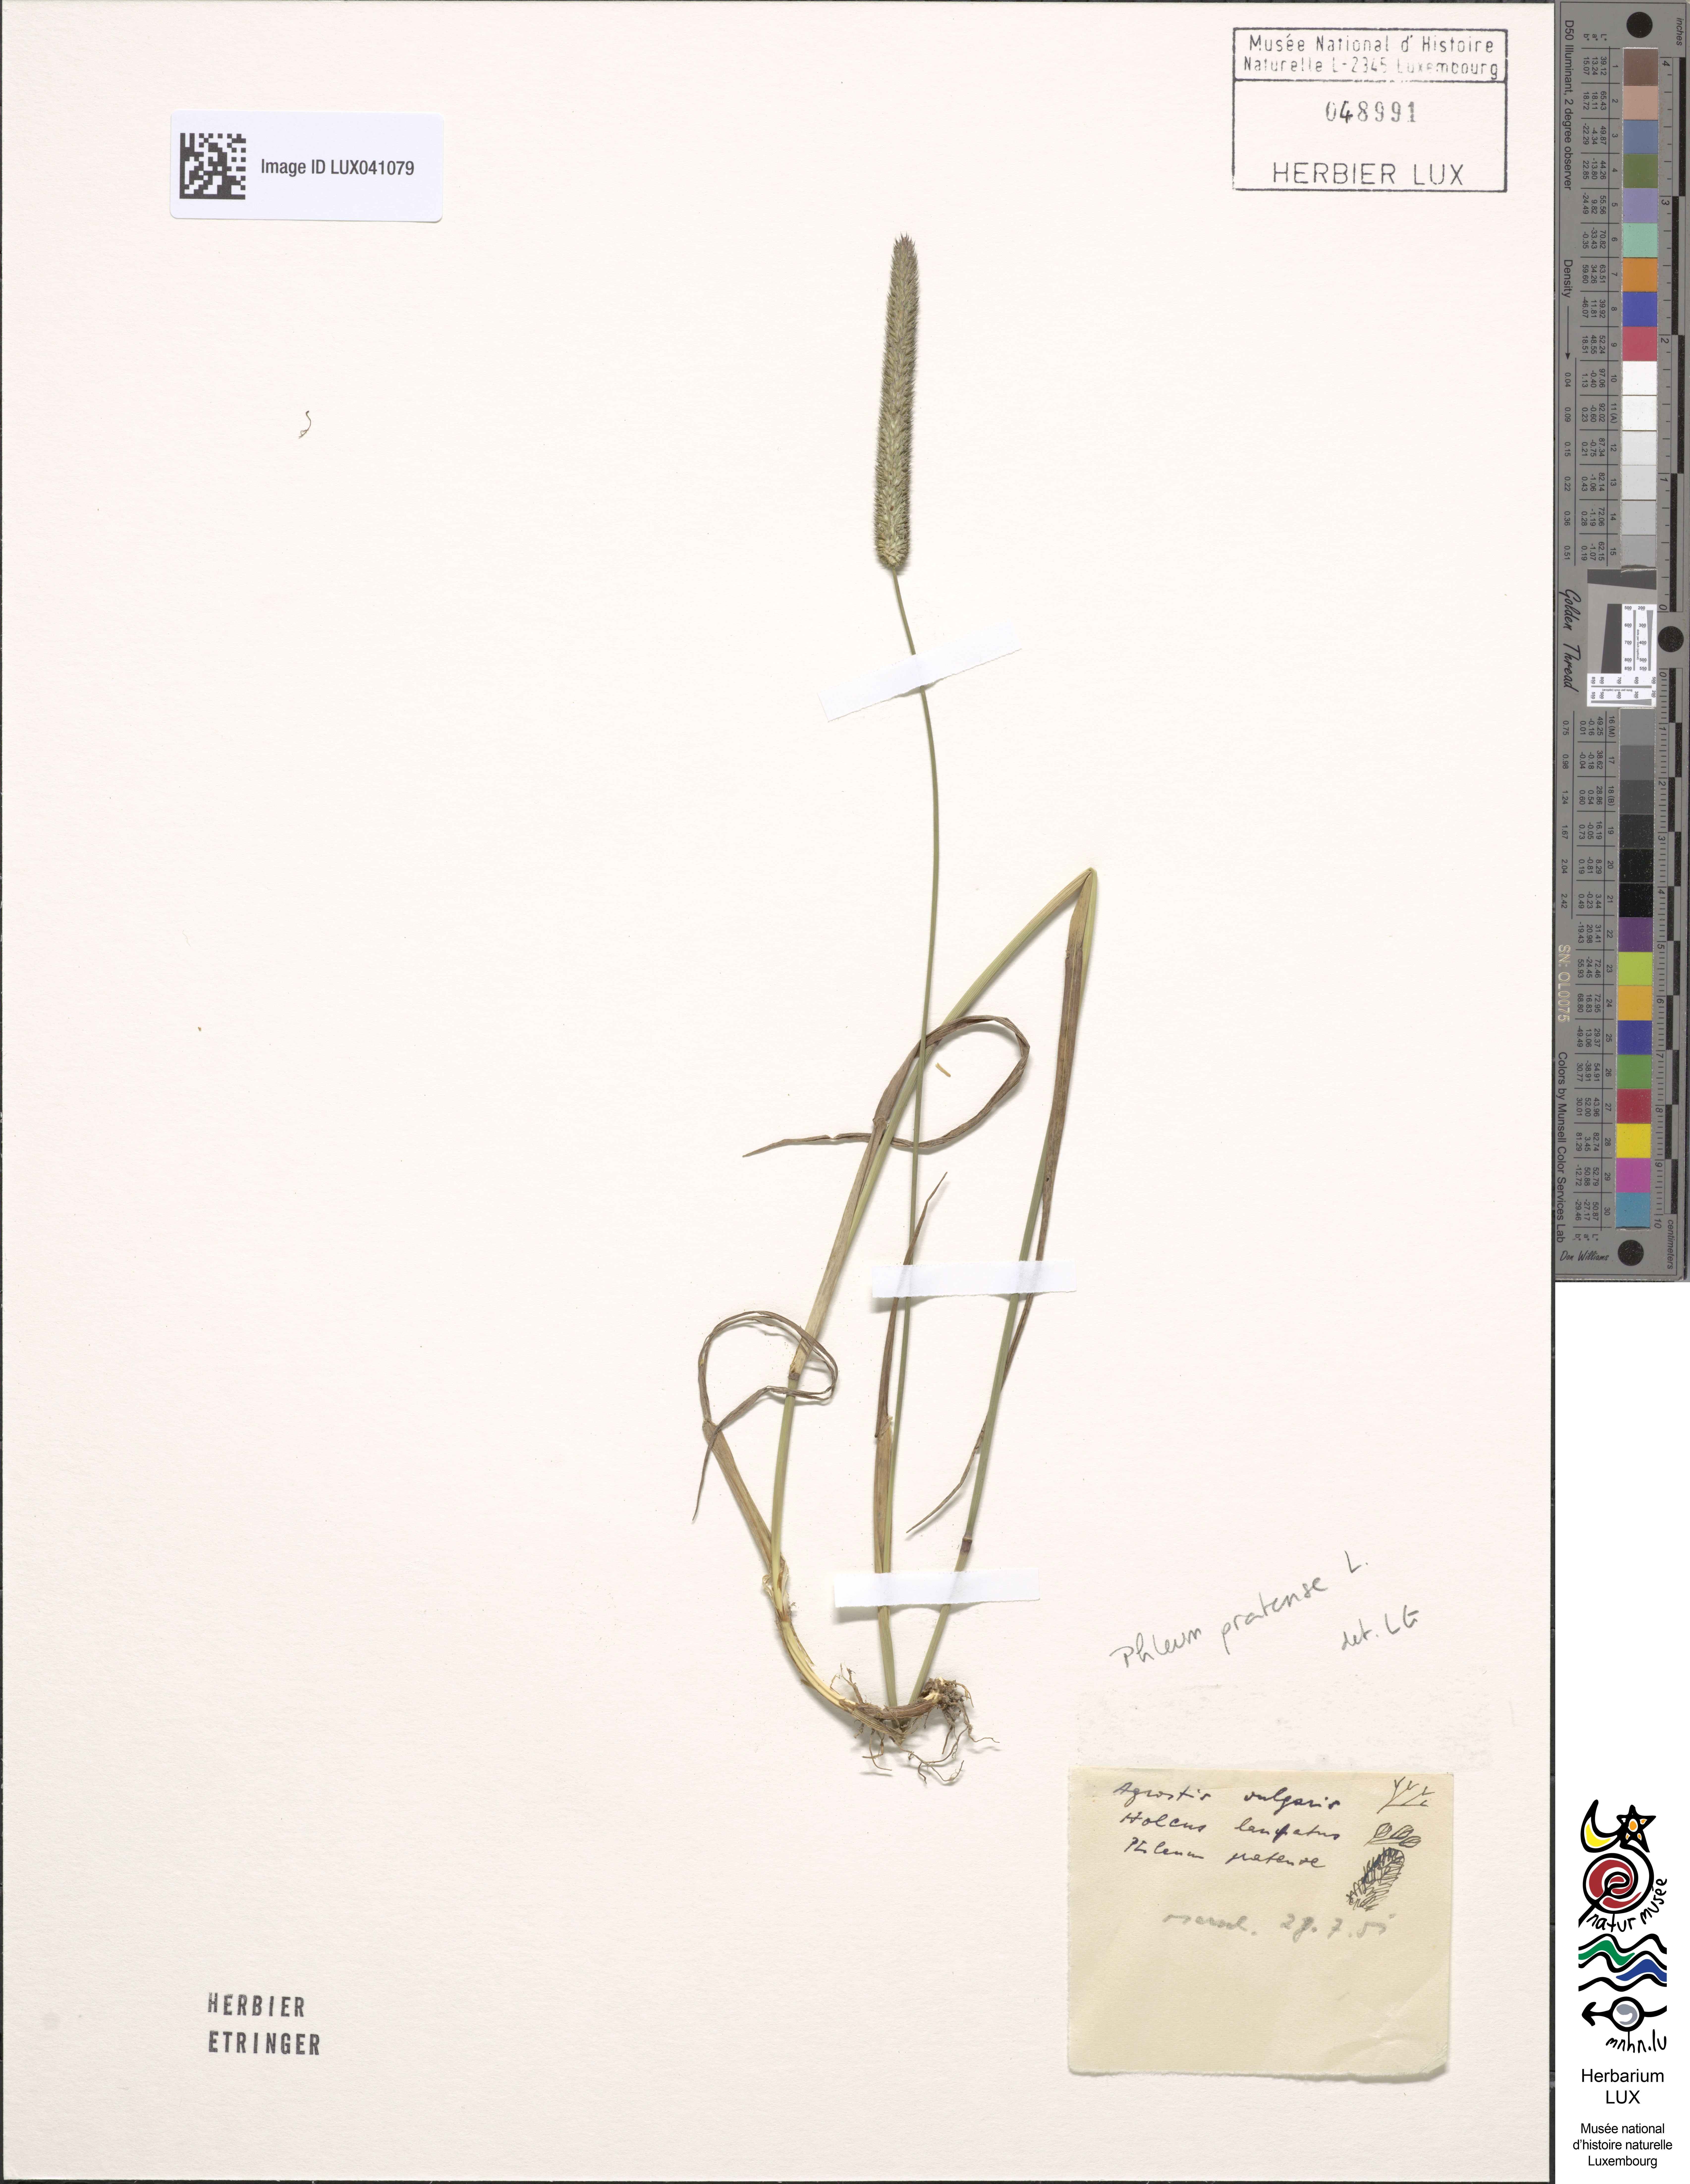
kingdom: Plantae
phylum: Tracheophyta
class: Liliopsida
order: Poales
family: Poaceae
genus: Phleum
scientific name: Phleum pratense
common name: Timothy grass
